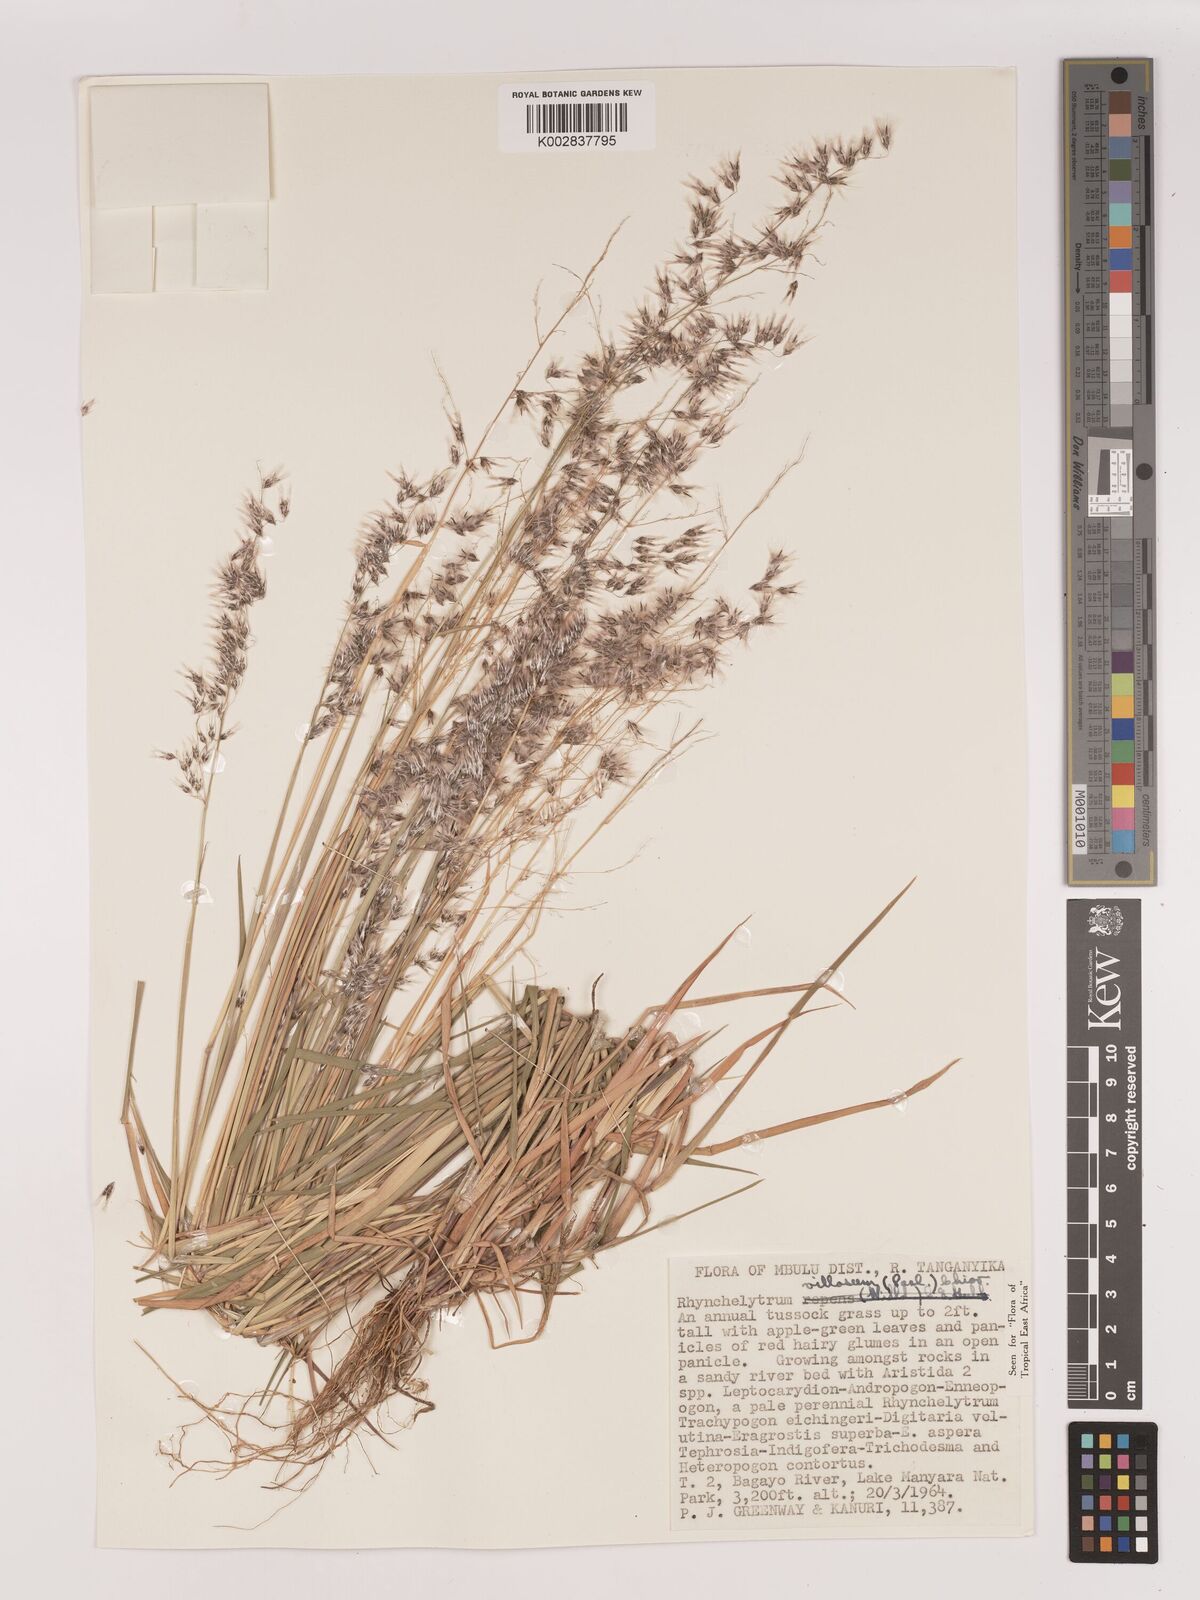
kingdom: Plantae
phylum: Tracheophyta
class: Liliopsida
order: Poales
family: Poaceae
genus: Melinis
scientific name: Melinis repens
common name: Rose natal grass
